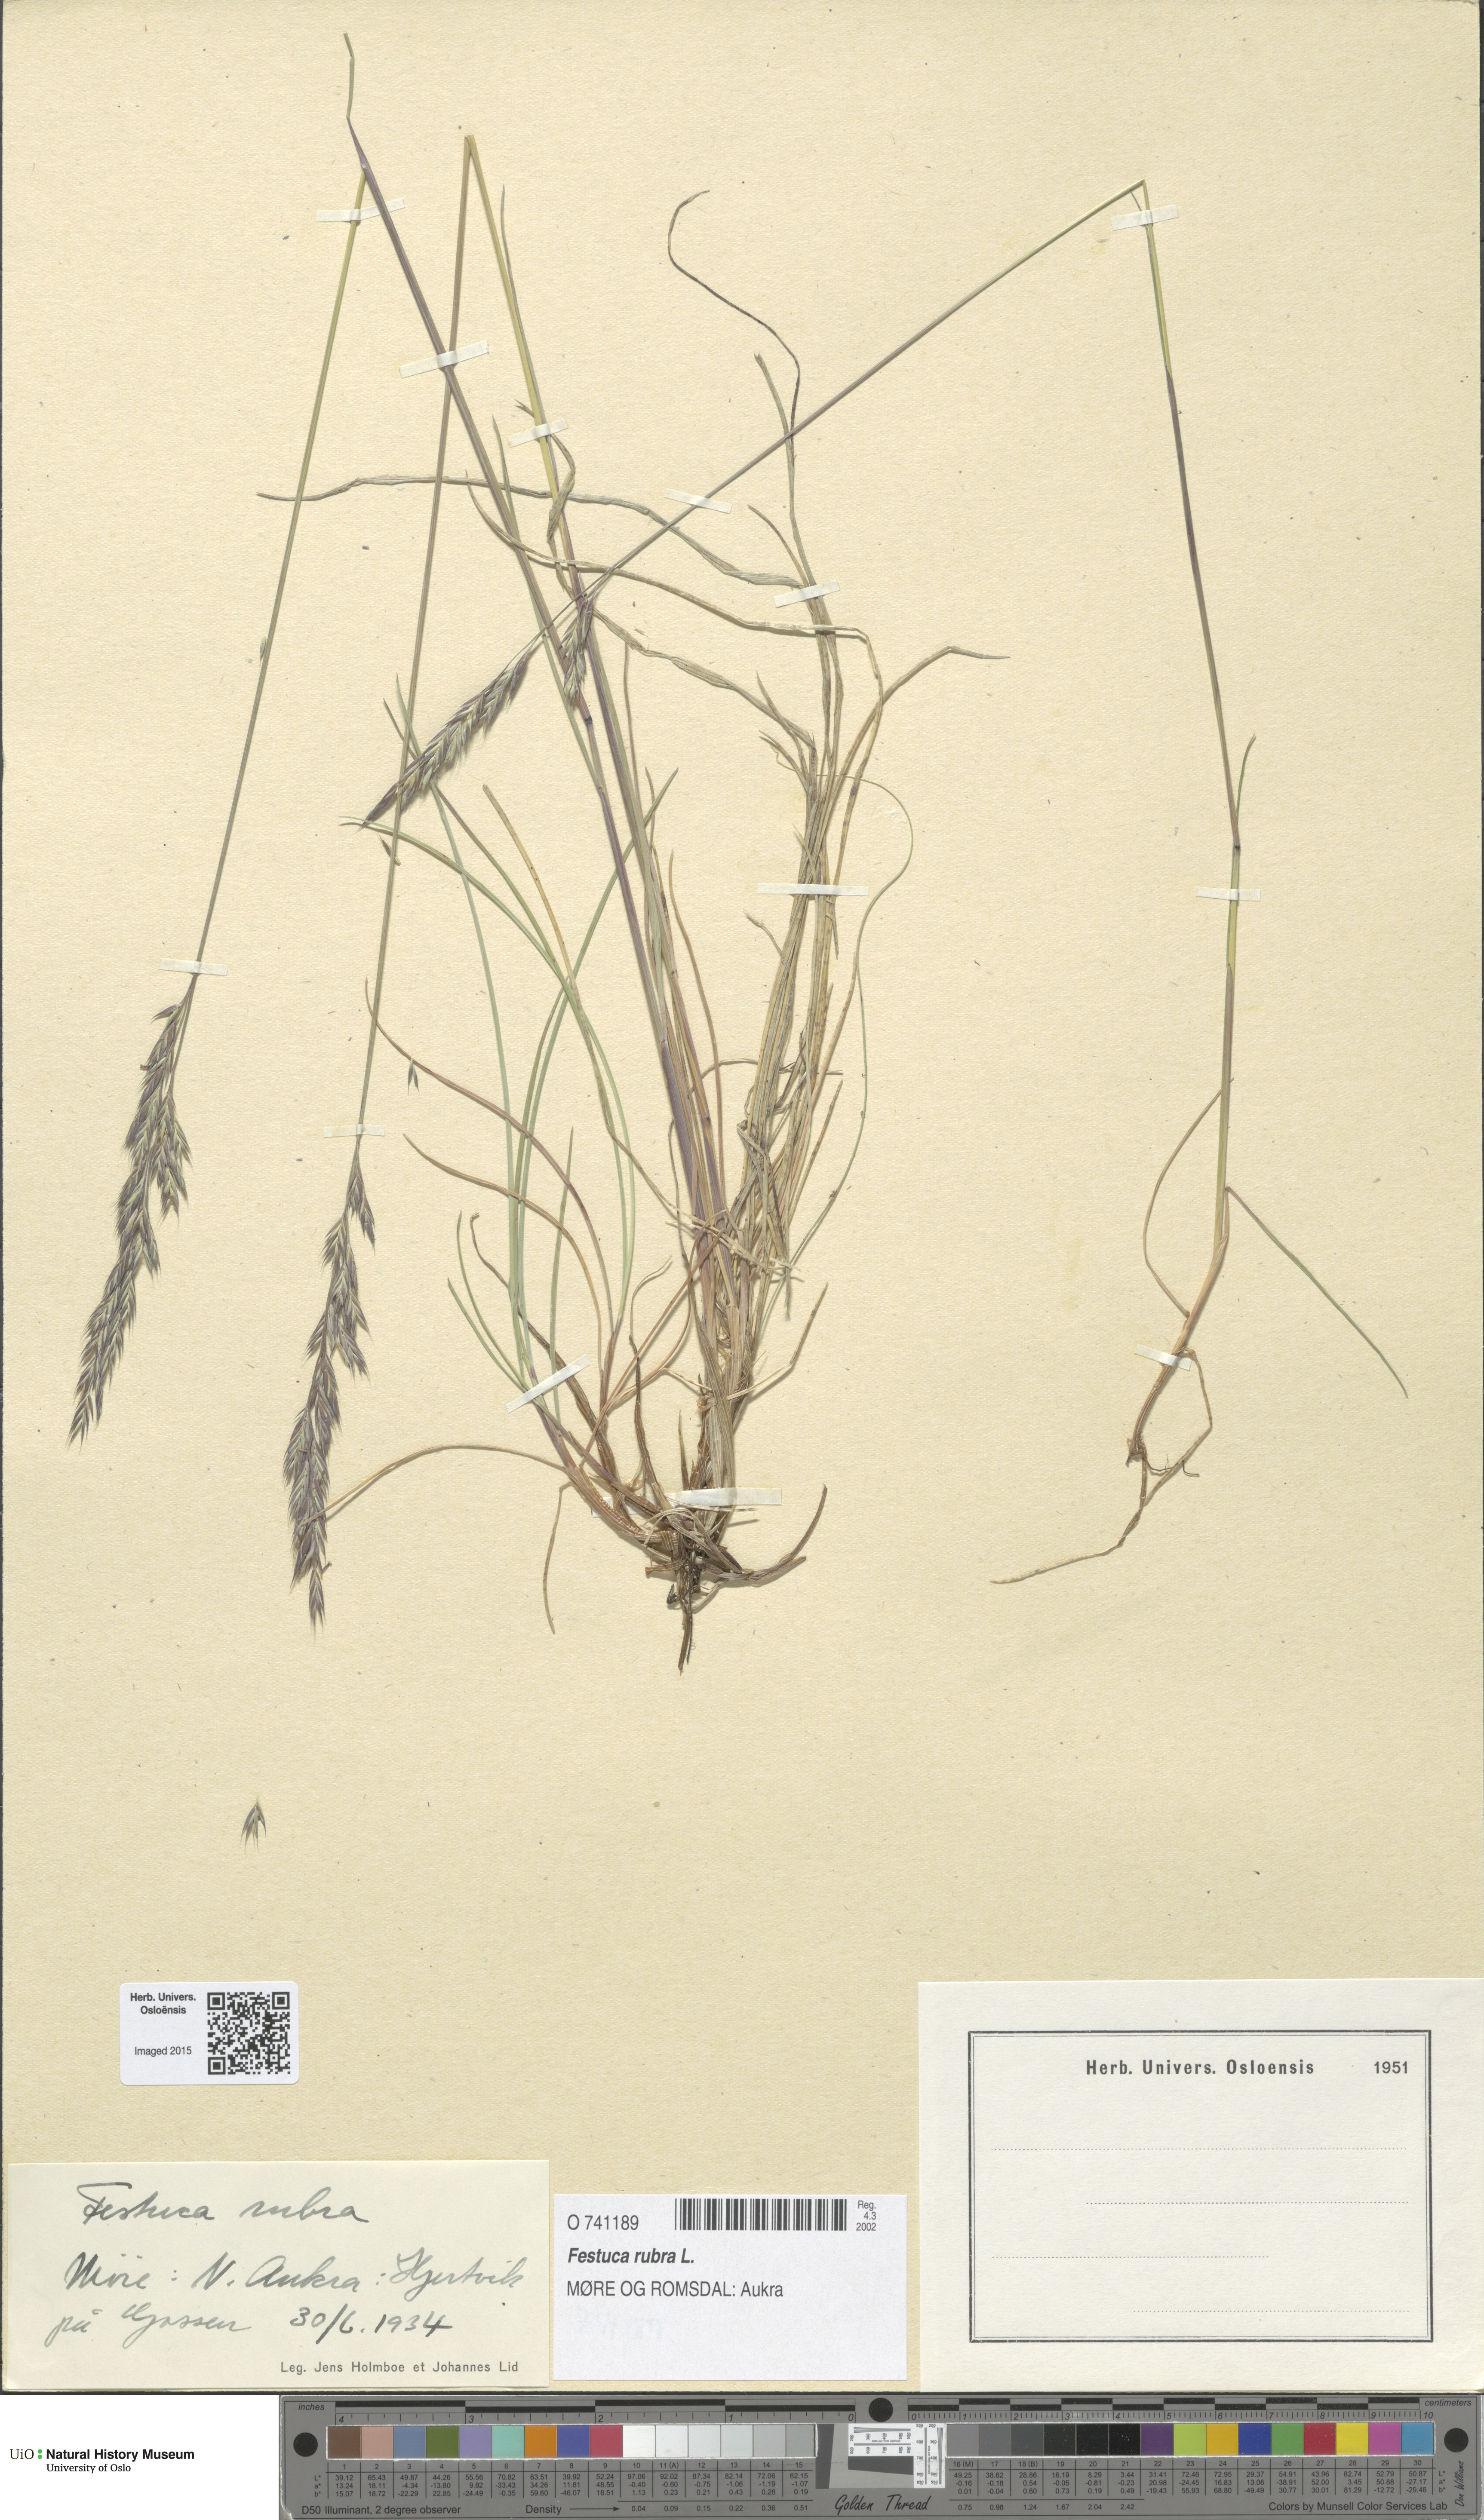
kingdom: Plantae
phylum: Tracheophyta
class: Liliopsida
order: Poales
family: Poaceae
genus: Festuca
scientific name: Festuca rubra
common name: Red fescue
